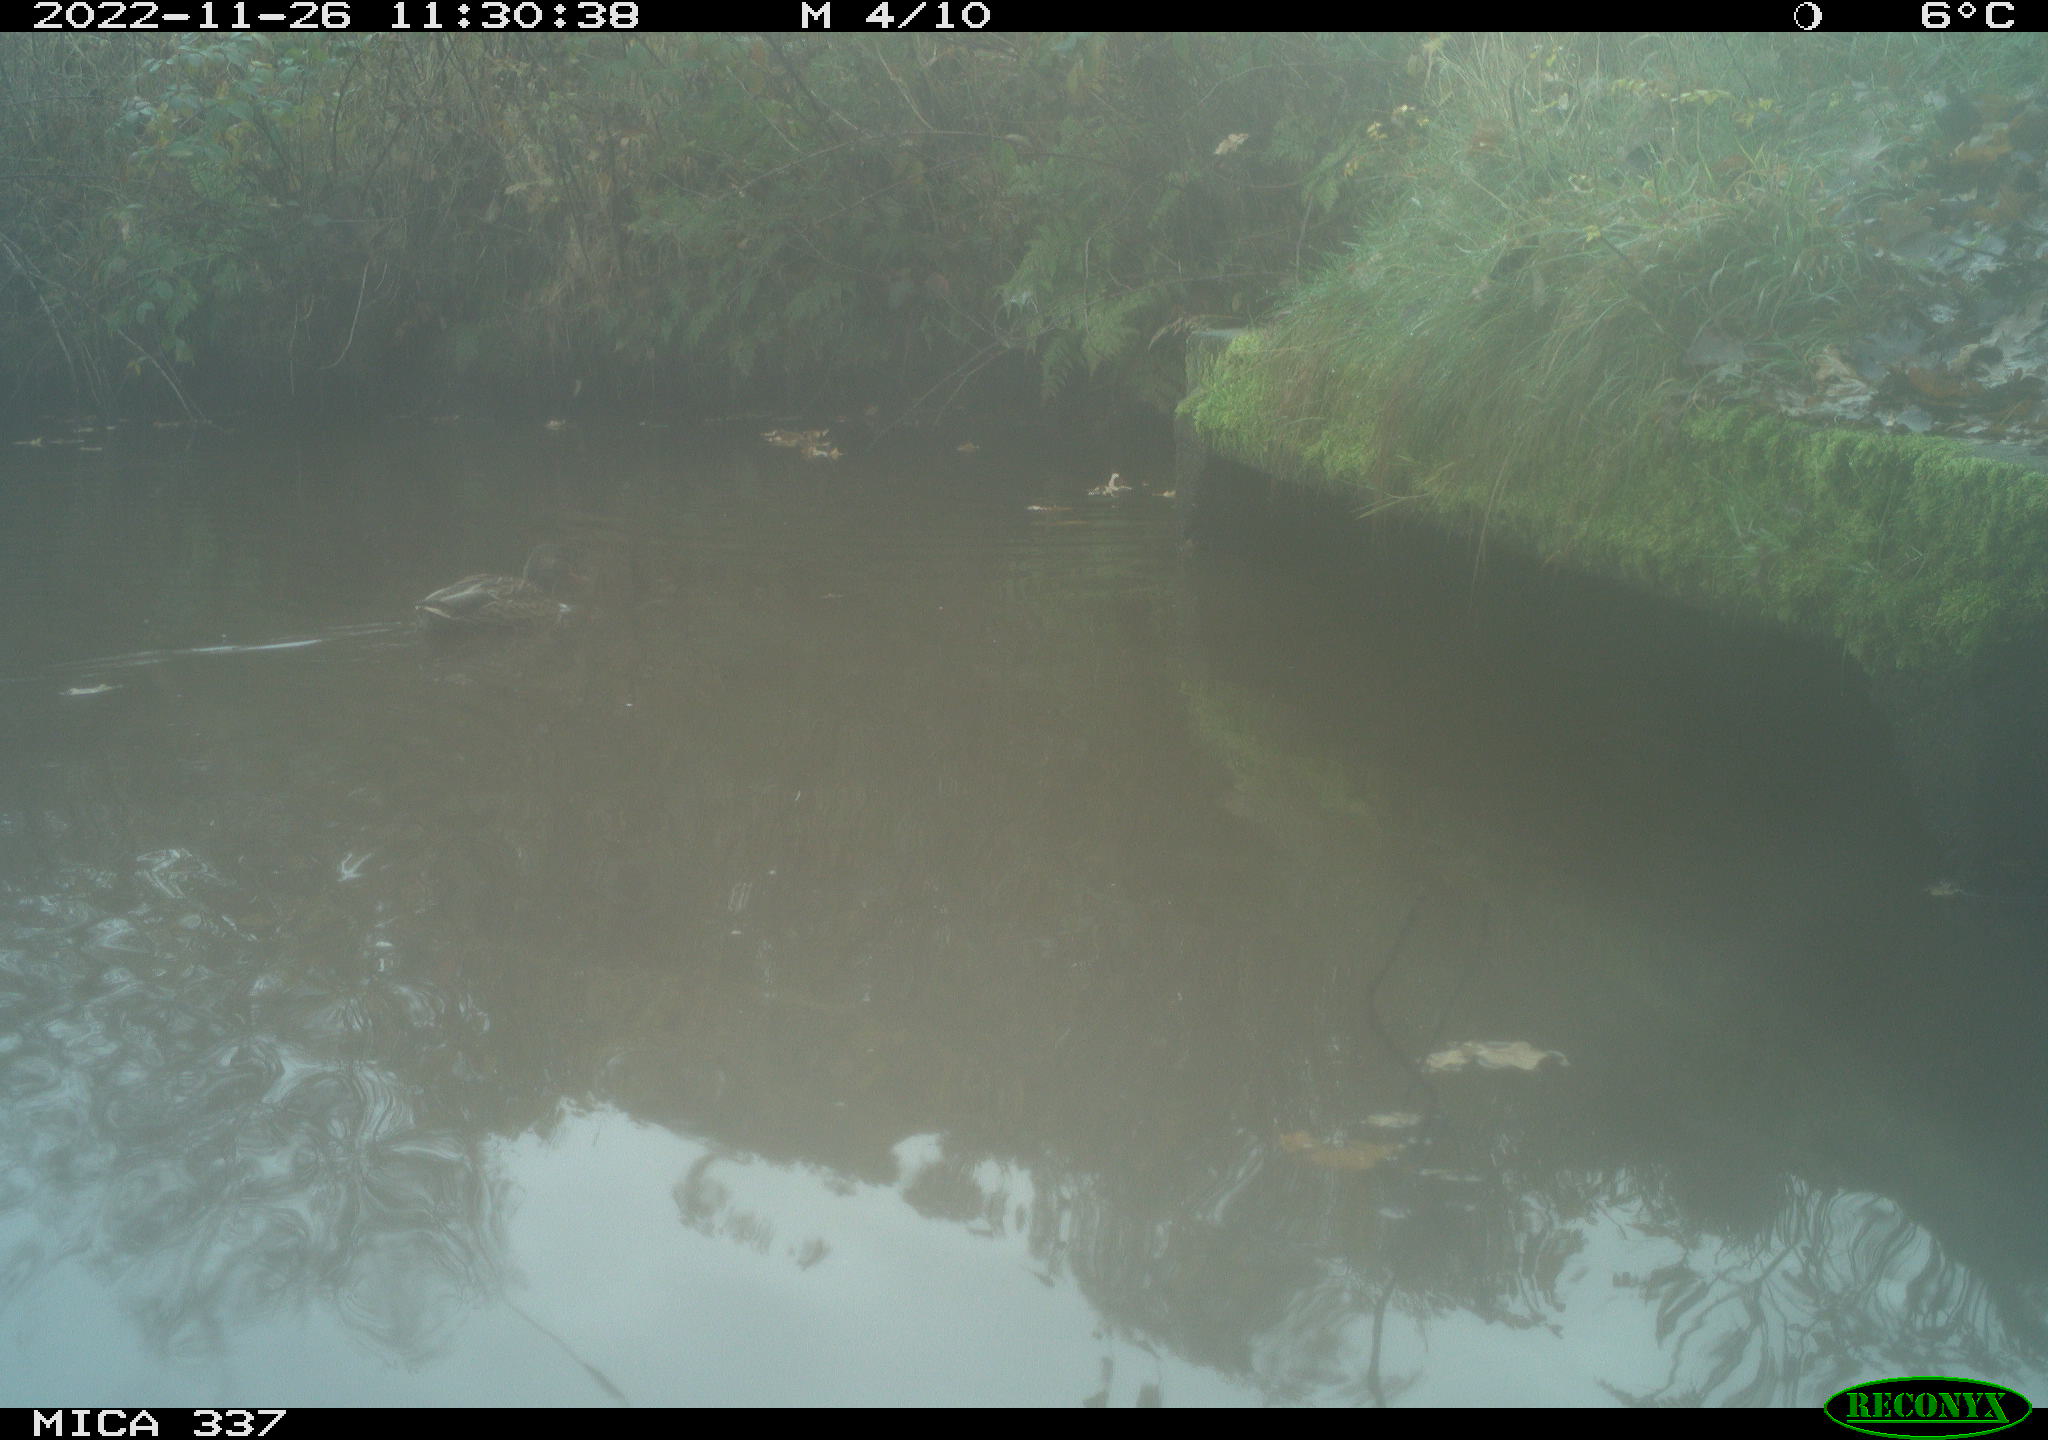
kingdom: Animalia
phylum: Chordata
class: Aves
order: Anseriformes
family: Anatidae
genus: Anas
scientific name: Anas platyrhynchos
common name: Mallard
